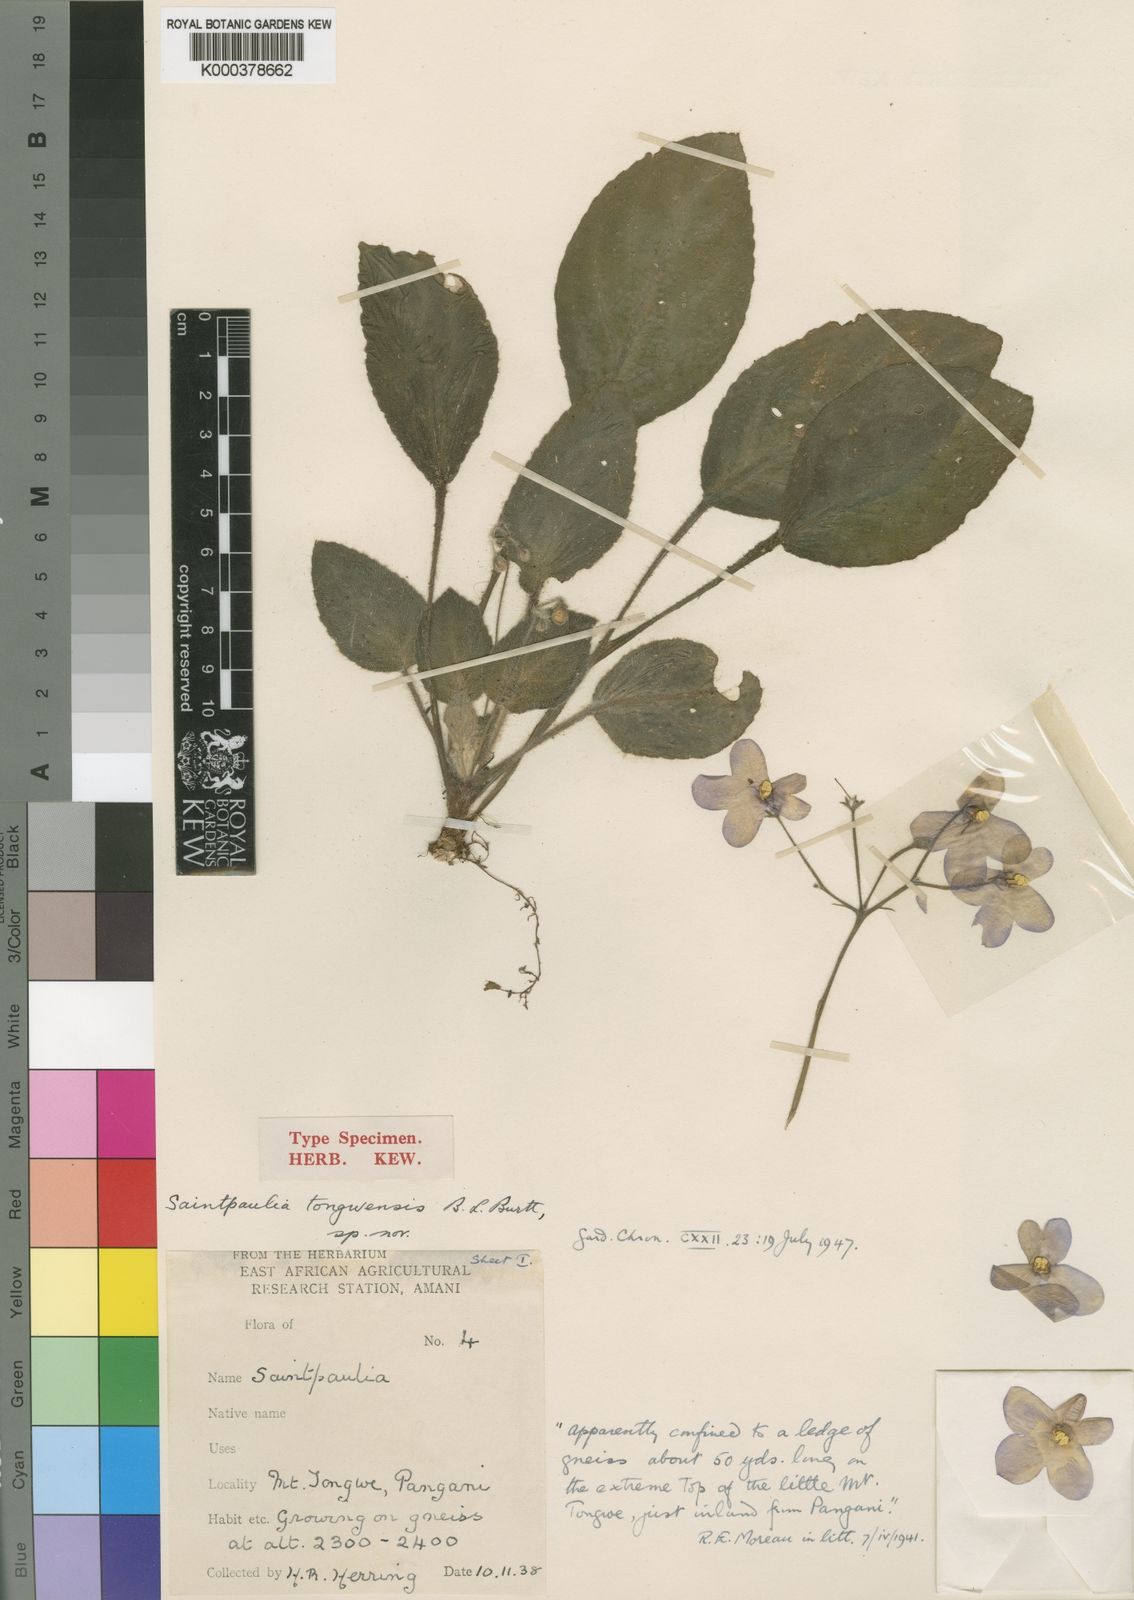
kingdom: Plantae
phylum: Tracheophyta
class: Magnoliopsida
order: Lamiales
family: Gesneriaceae
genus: Streptocarpus
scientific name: Streptocarpus ionanthus
